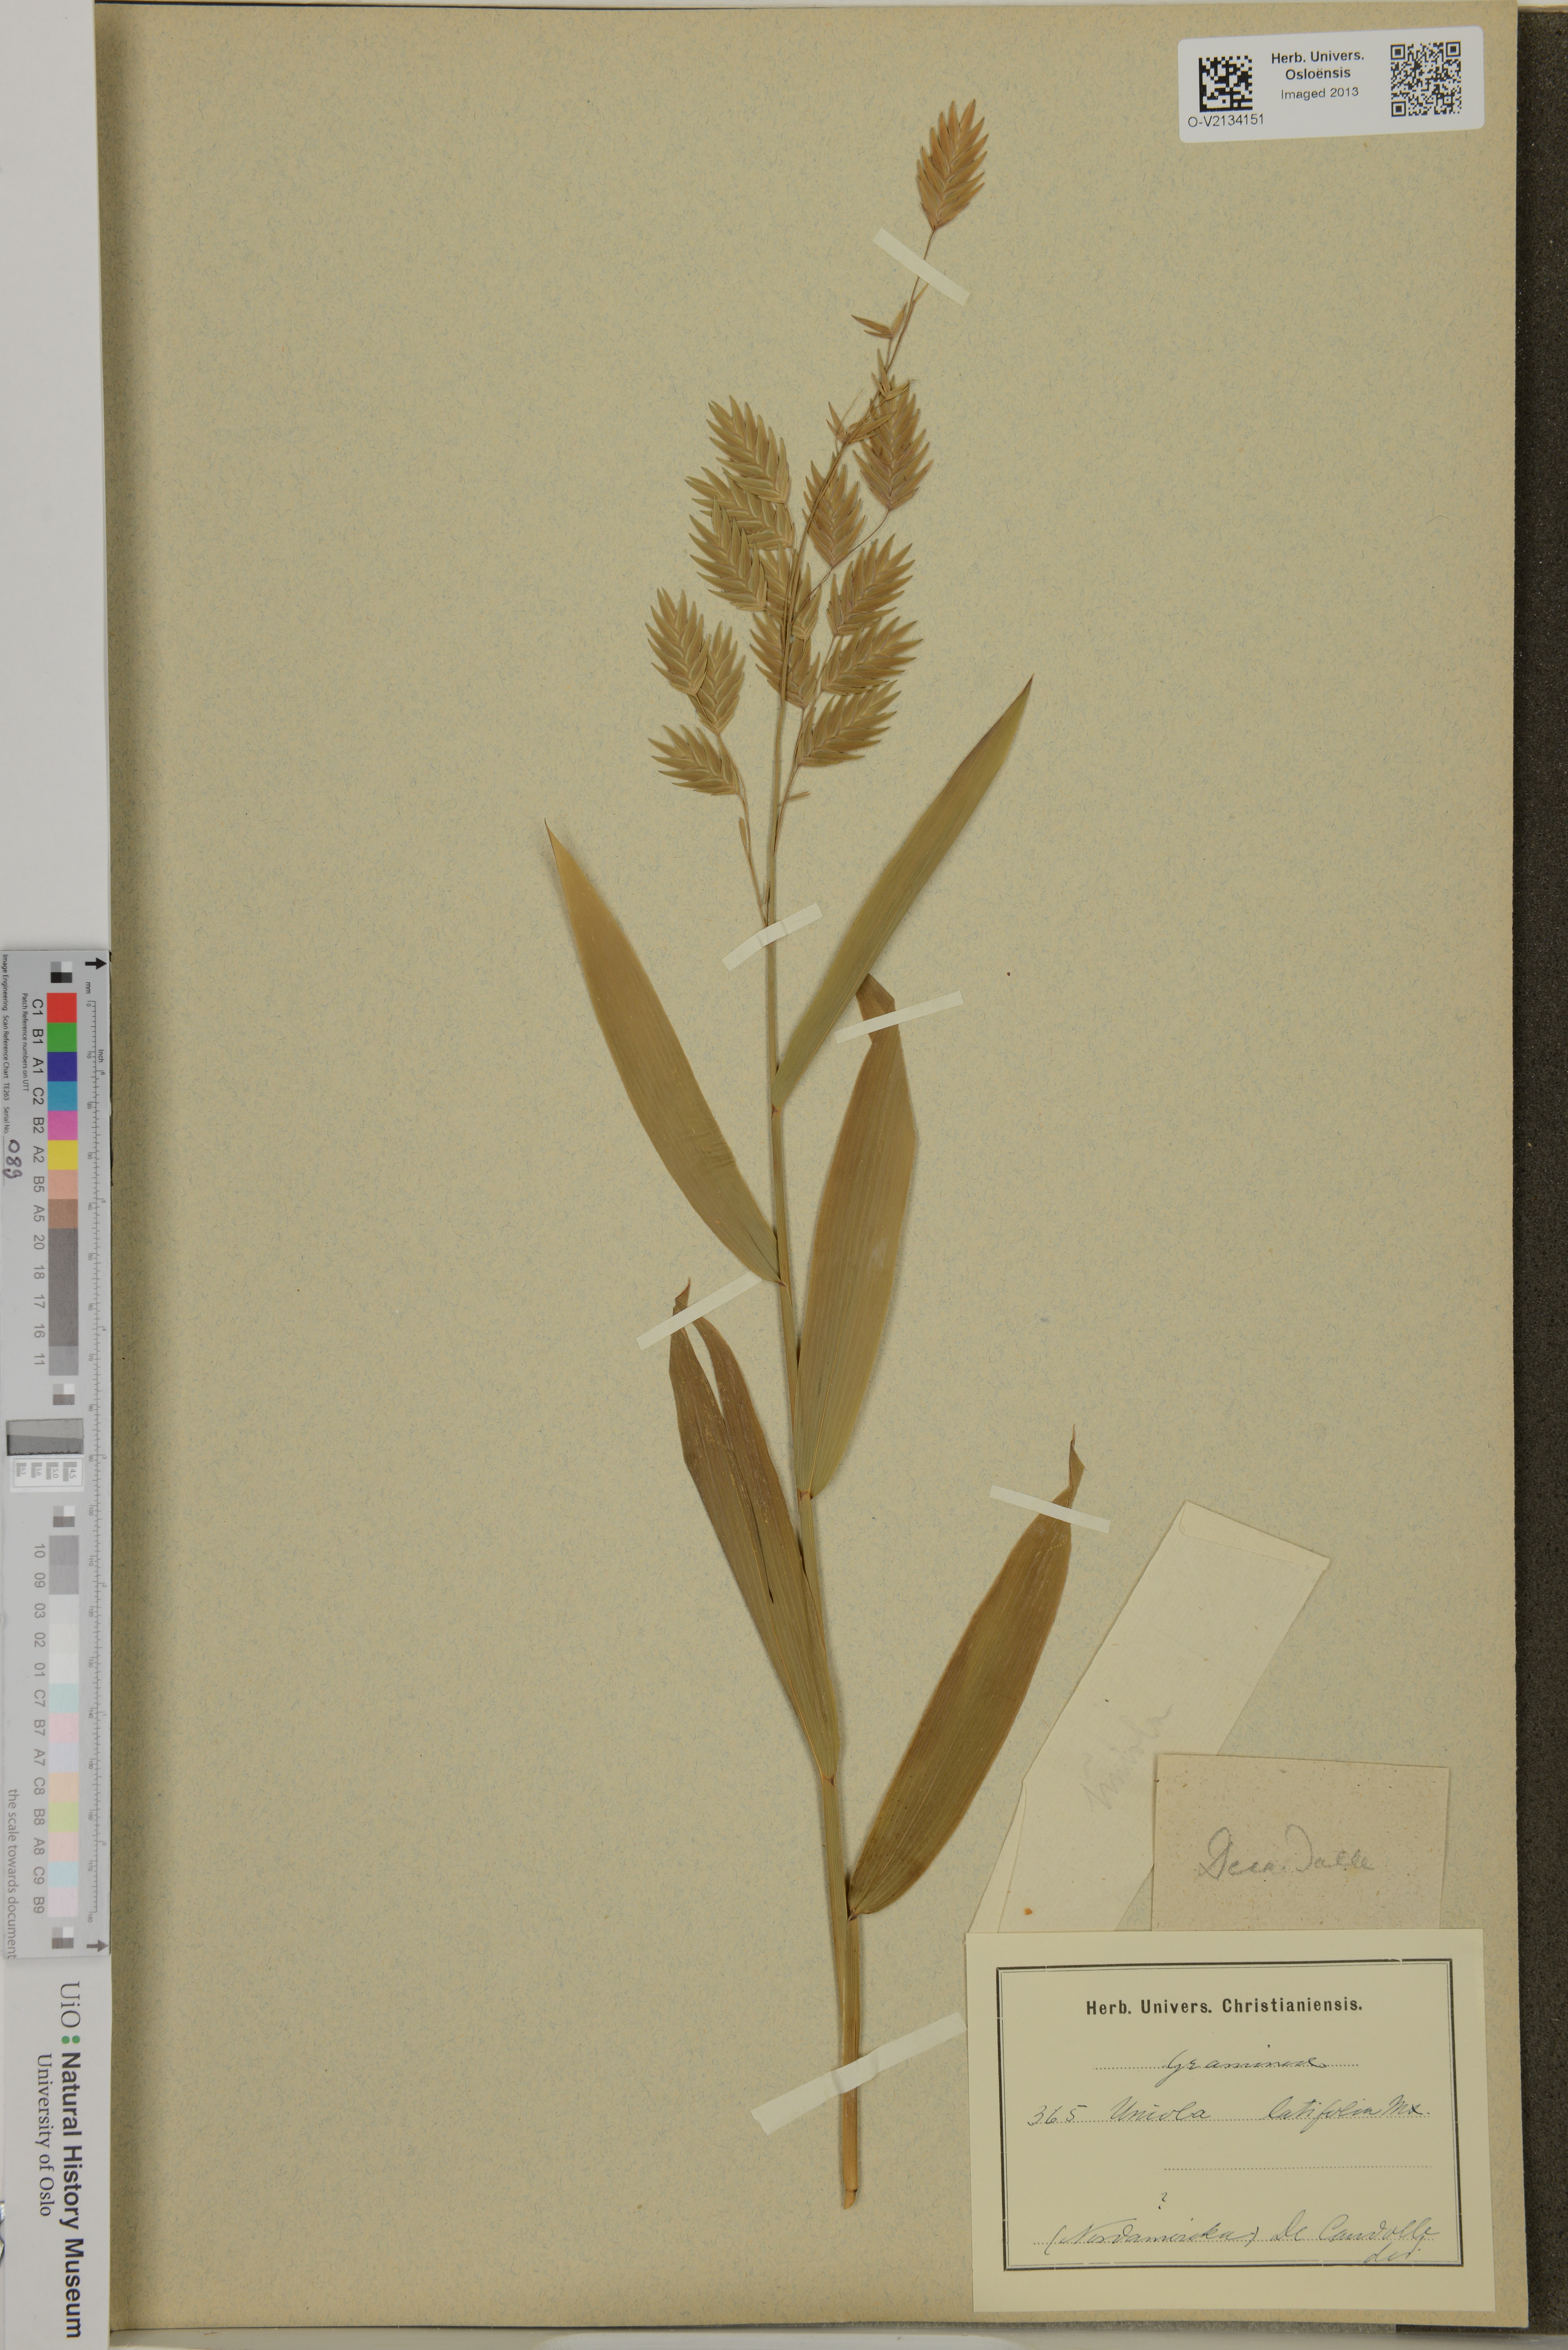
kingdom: Plantae
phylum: Tracheophyta
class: Liliopsida
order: Poales
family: Poaceae
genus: Chasmanthium
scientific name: Chasmanthium latifolium
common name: Broad-leaved chasmanthium
